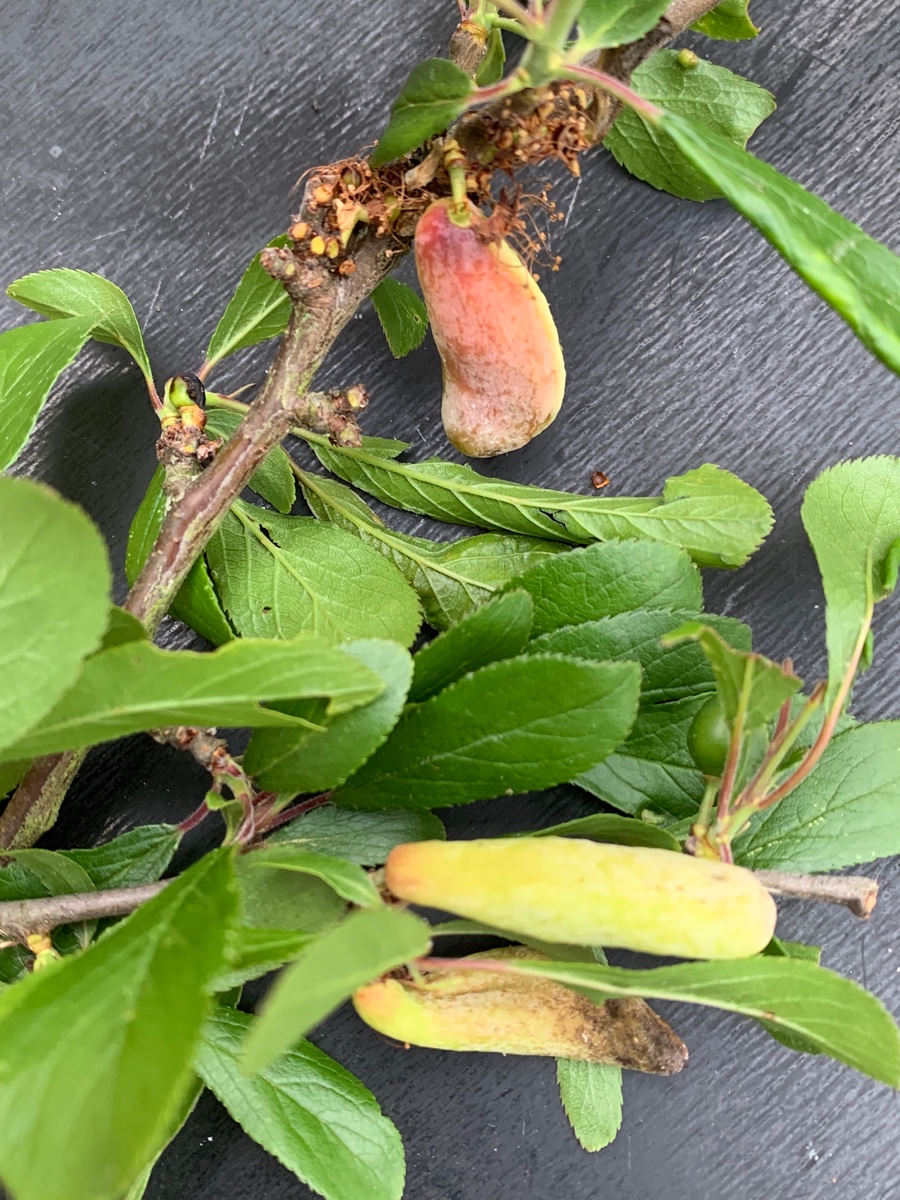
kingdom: Fungi
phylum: Ascomycota
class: Taphrinomycetes
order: Taphrinales
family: Taphrinaceae
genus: Taphrina
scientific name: Taphrina pruni
